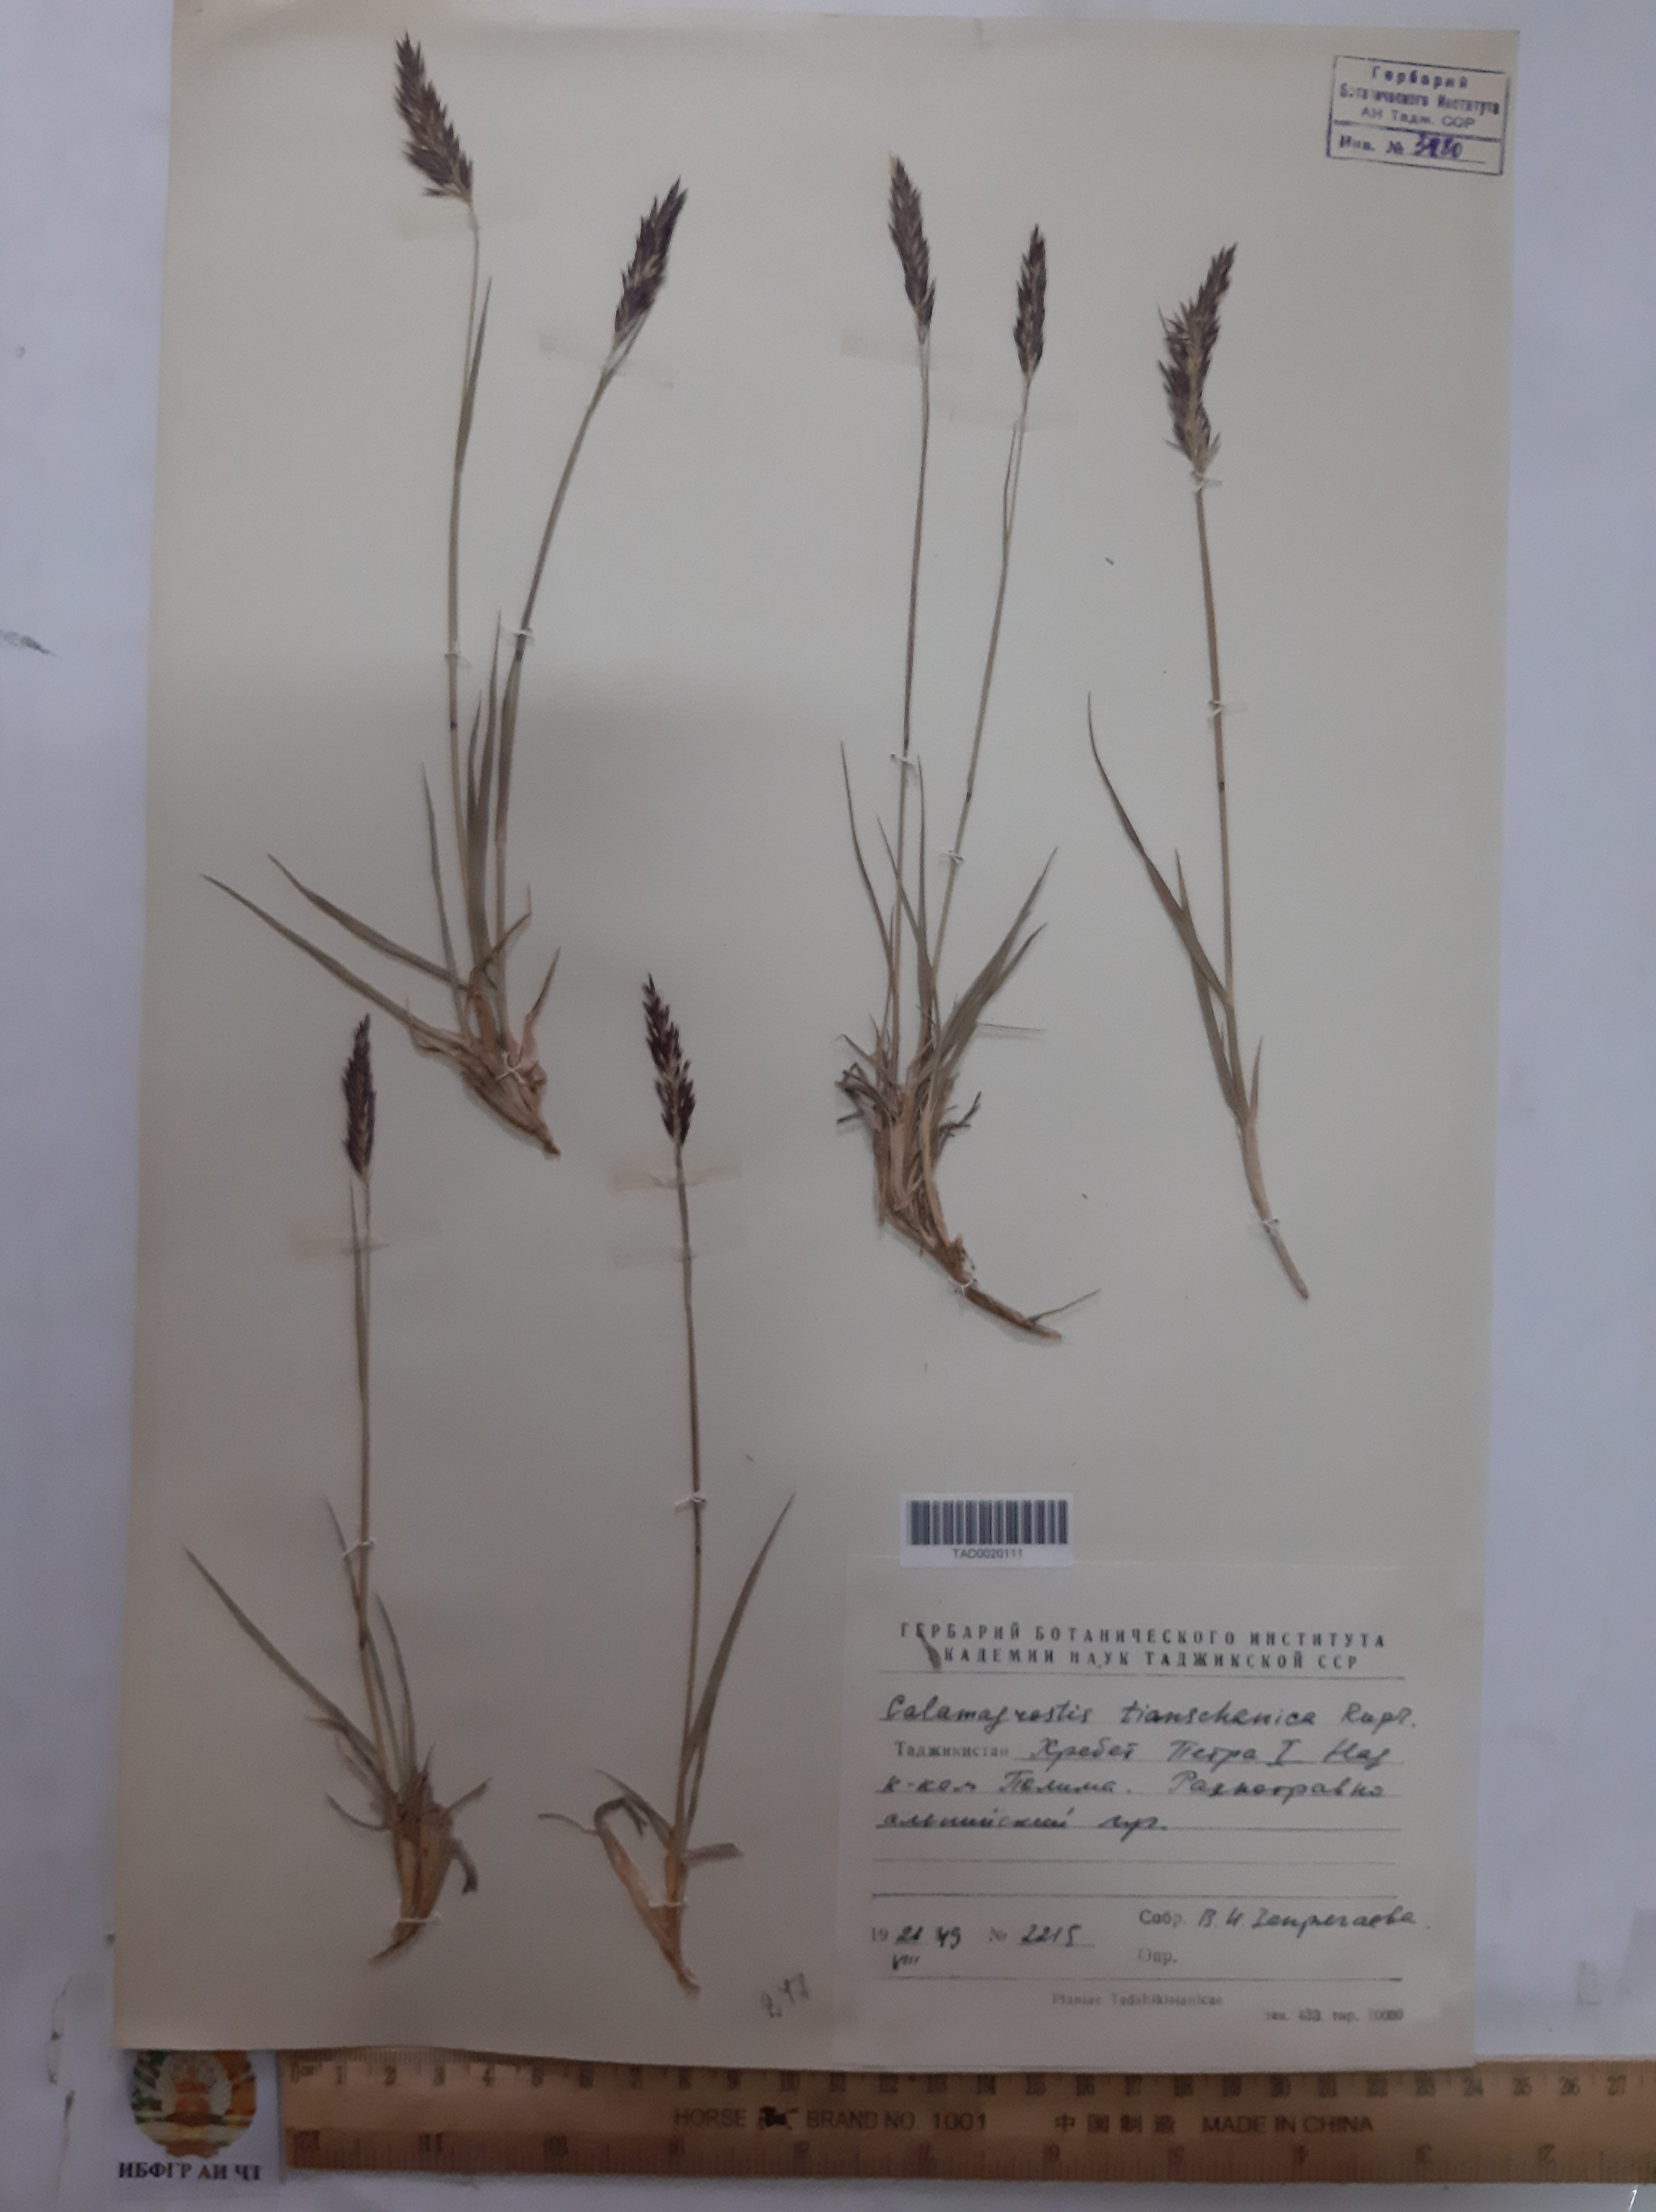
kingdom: Plantae
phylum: Tracheophyta
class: Liliopsida
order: Poales
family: Poaceae
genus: Calamagrostis
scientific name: Calamagrostis tianschanica
